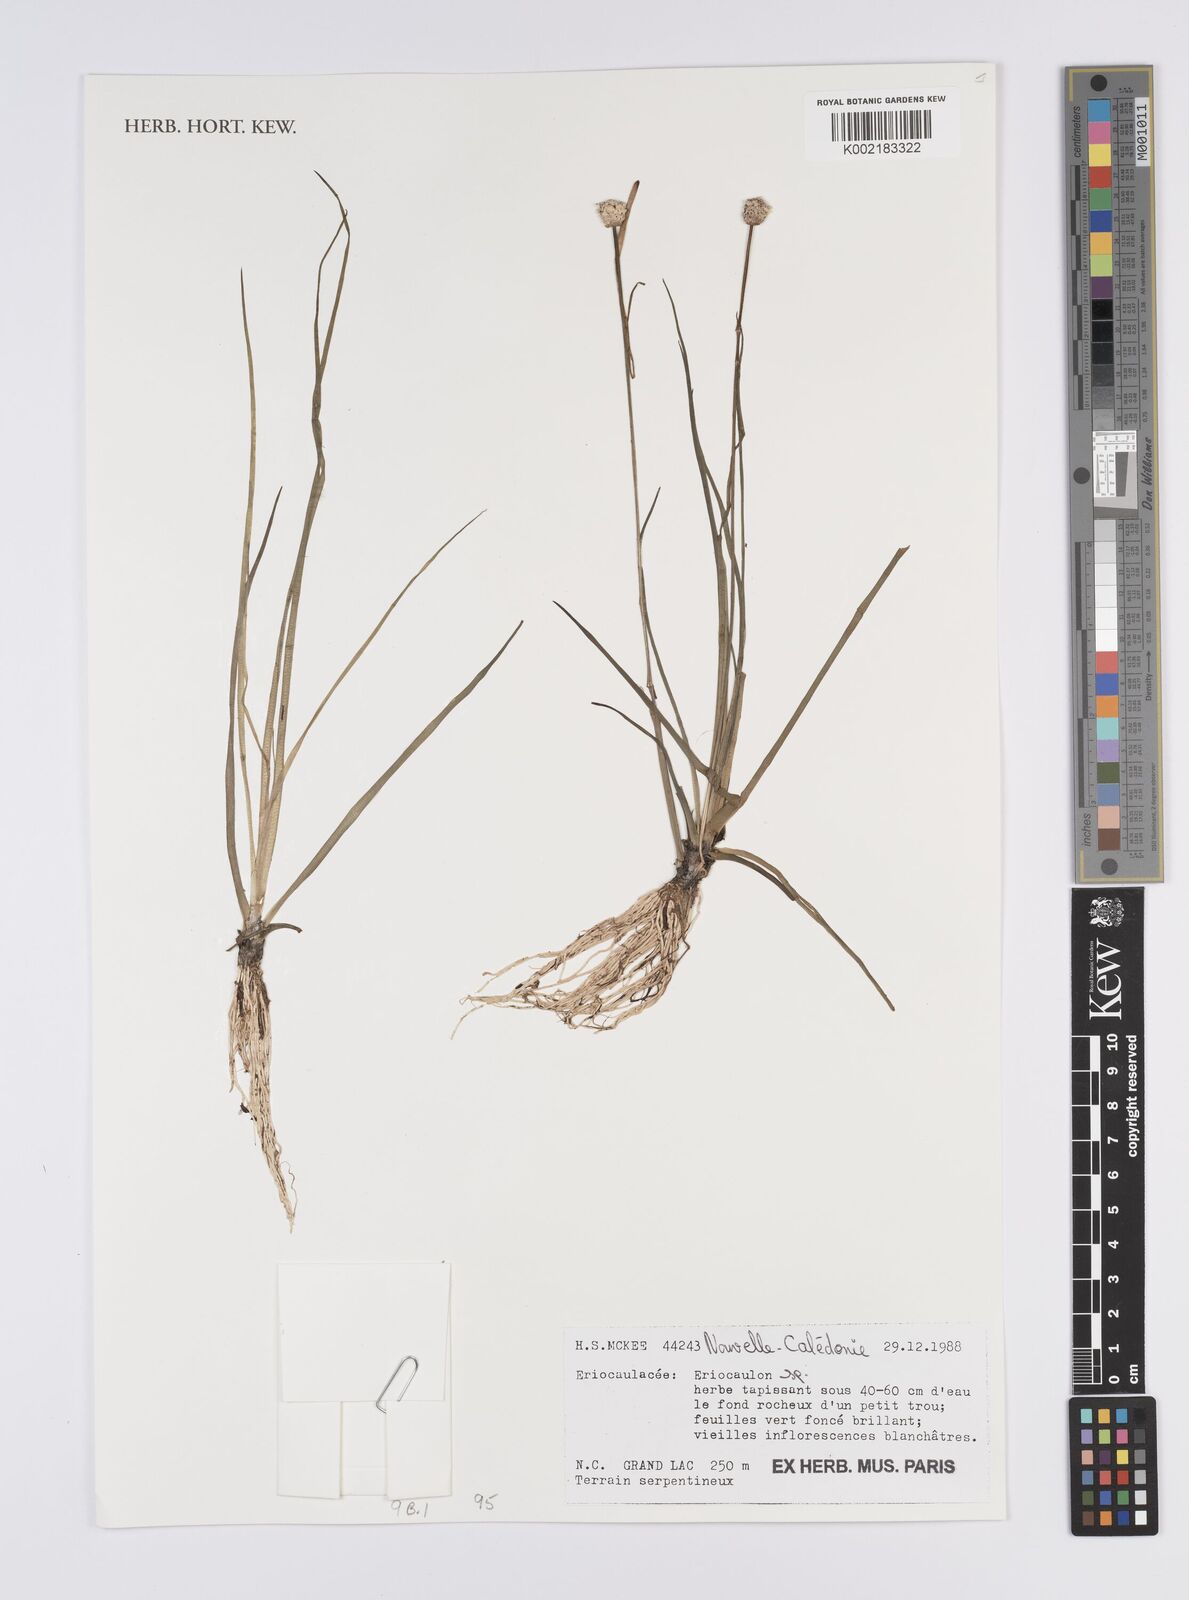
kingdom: Plantae
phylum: Tracheophyta
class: Liliopsida
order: Poales
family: Eriocaulaceae
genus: Eriocaulon
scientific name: Eriocaulon
